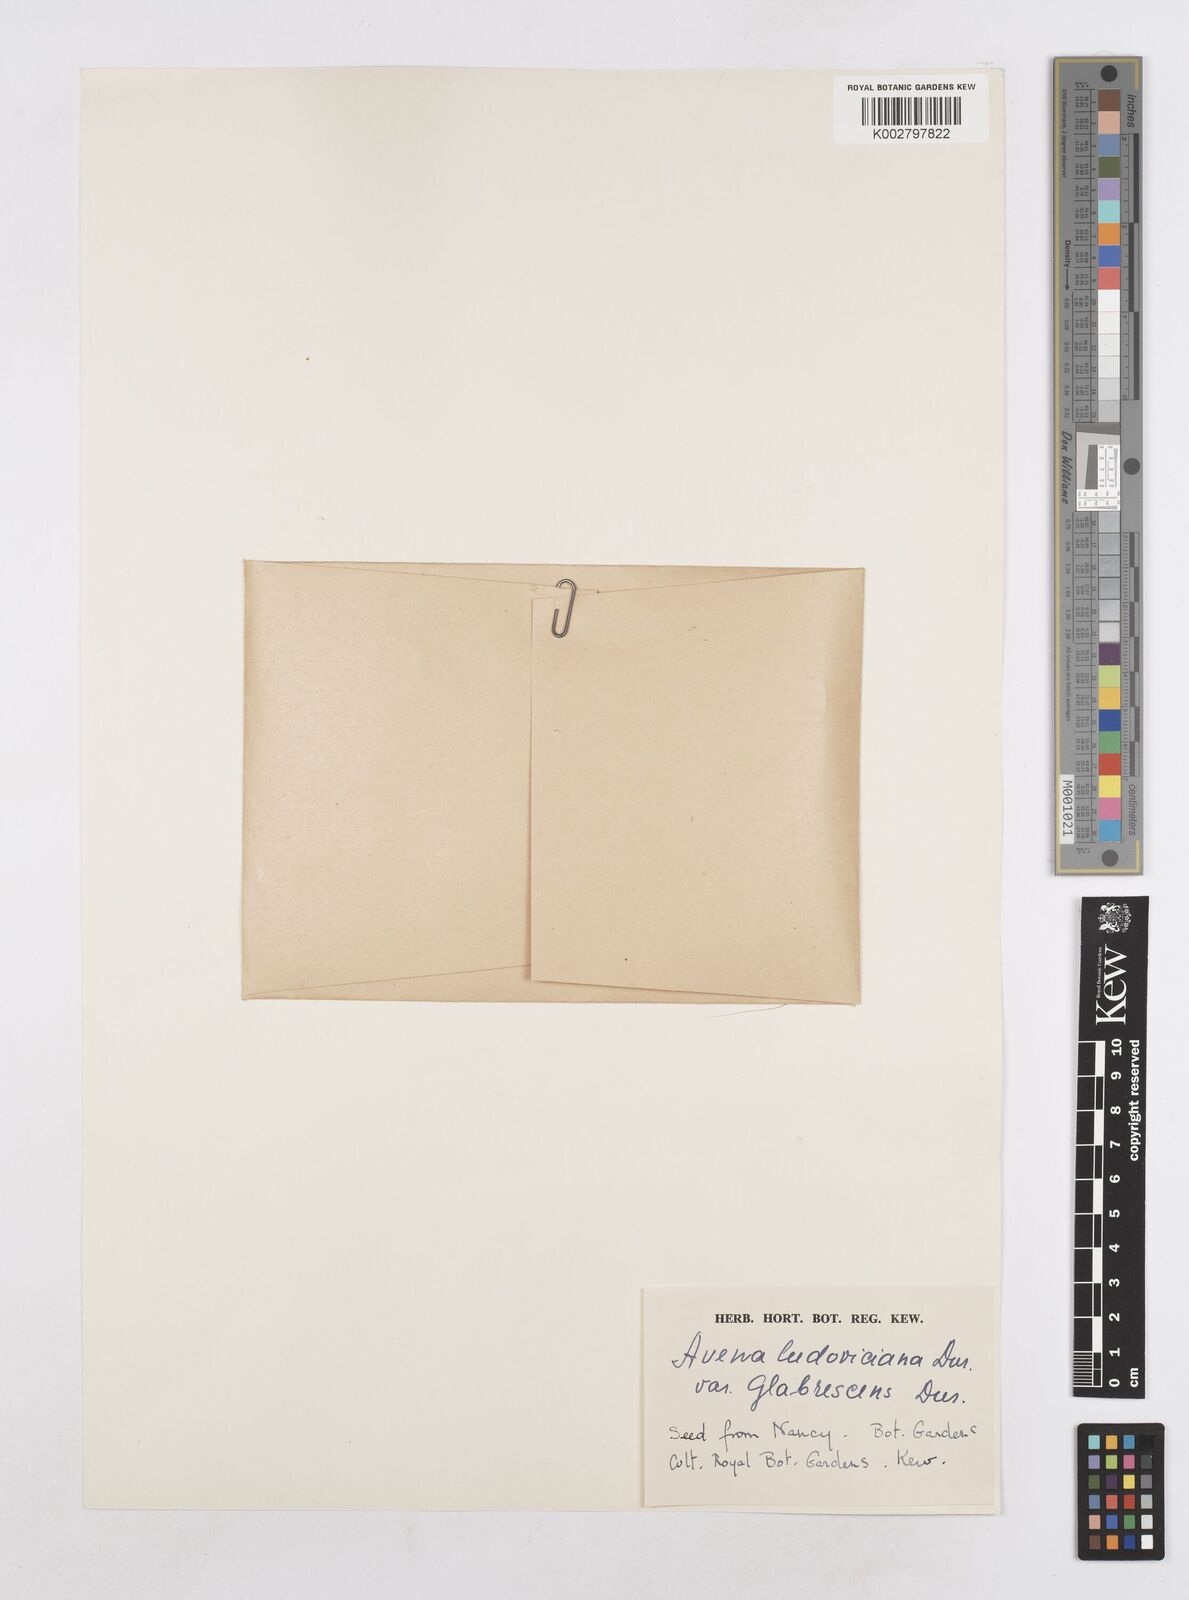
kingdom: Plantae
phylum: Tracheophyta
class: Liliopsida
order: Poales
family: Poaceae
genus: Avena
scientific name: Avena sterilis
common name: Animated oat
